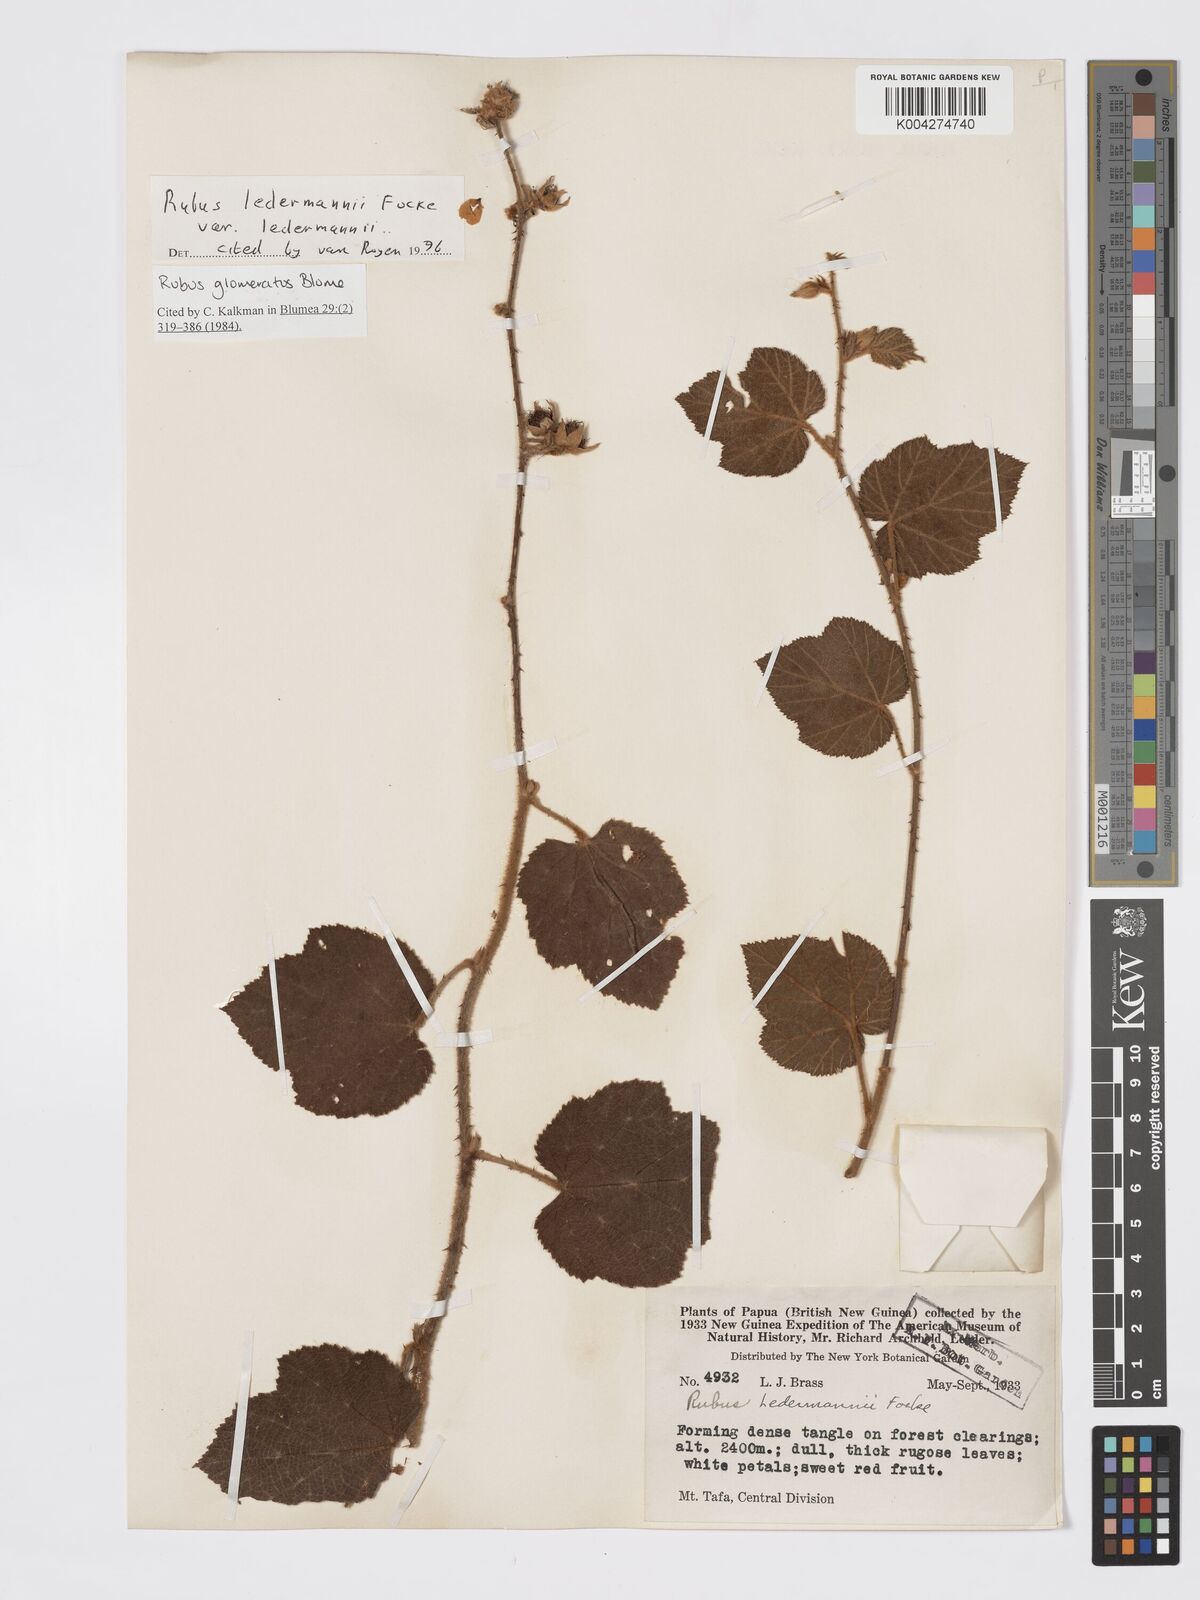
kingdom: Plantae
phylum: Tracheophyta
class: Magnoliopsida
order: Rosales
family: Rosaceae
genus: Rubus
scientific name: Rubus
